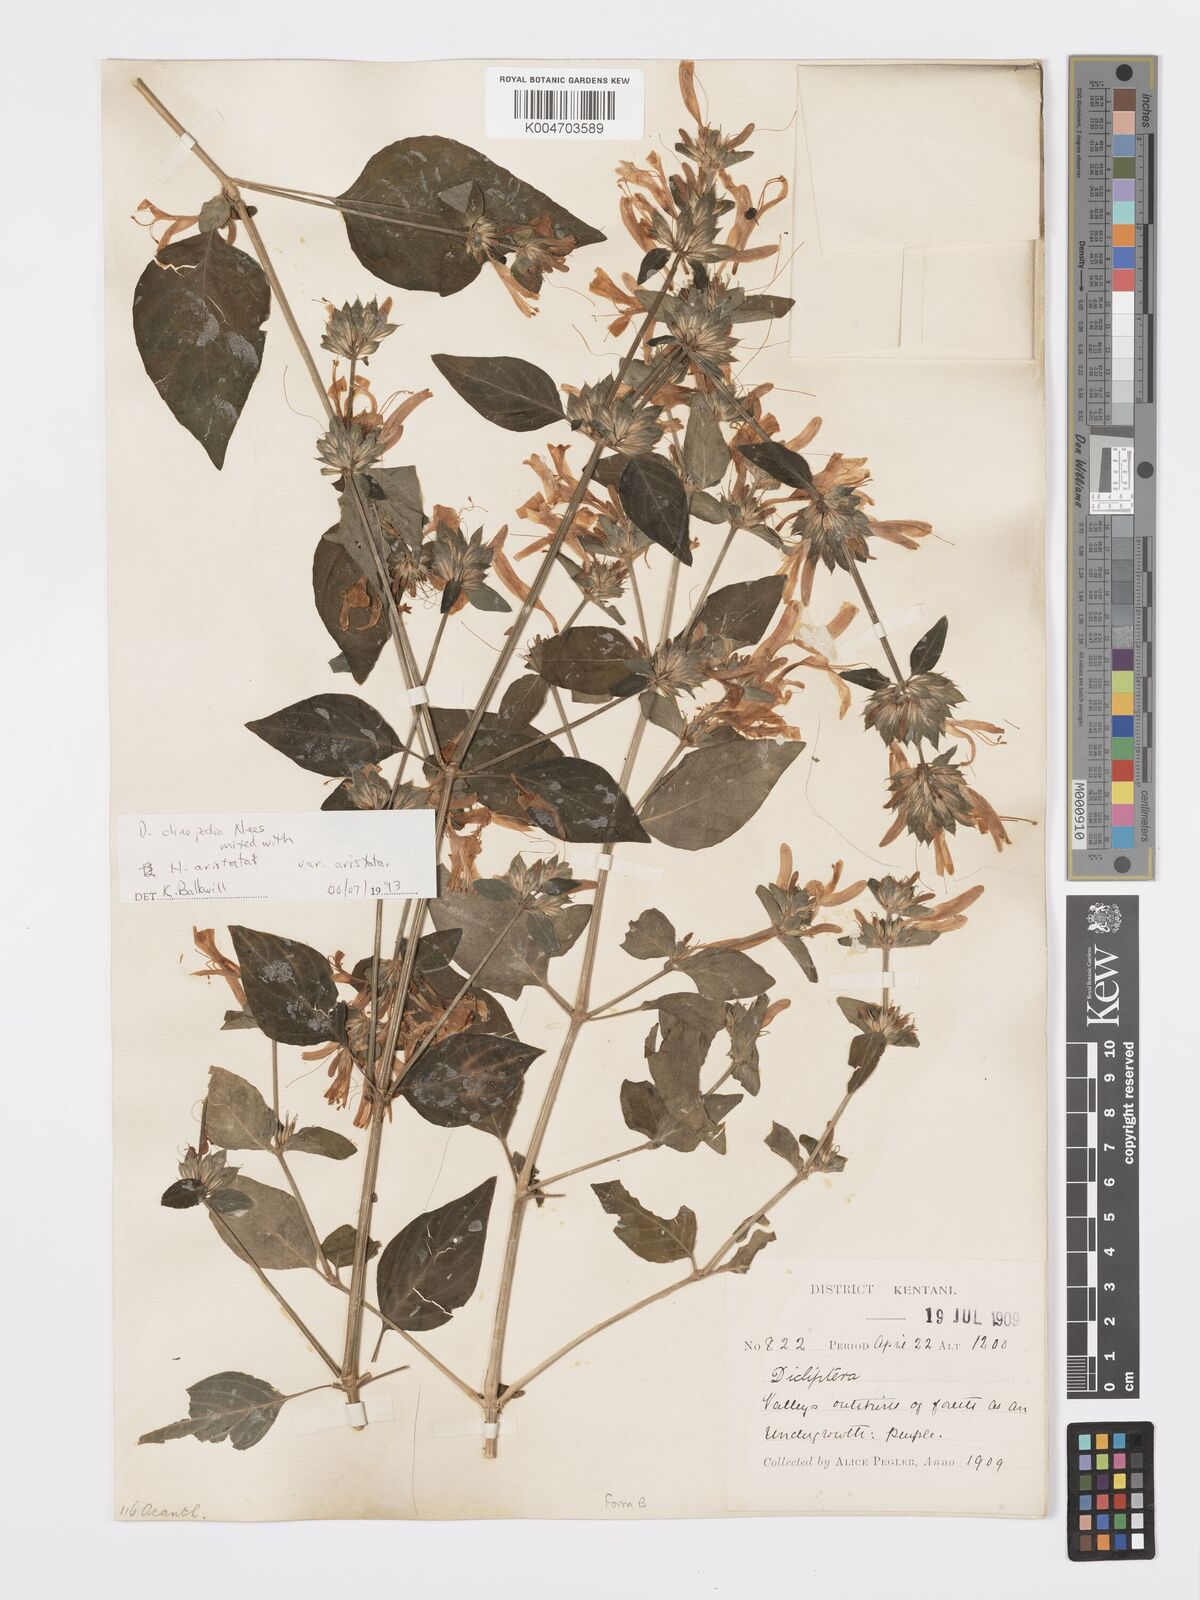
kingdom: Plantae
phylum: Tracheophyta
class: Magnoliopsida
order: Lamiales
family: Acanthaceae
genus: Dicliptera
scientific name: Dicliptera clinopodia
